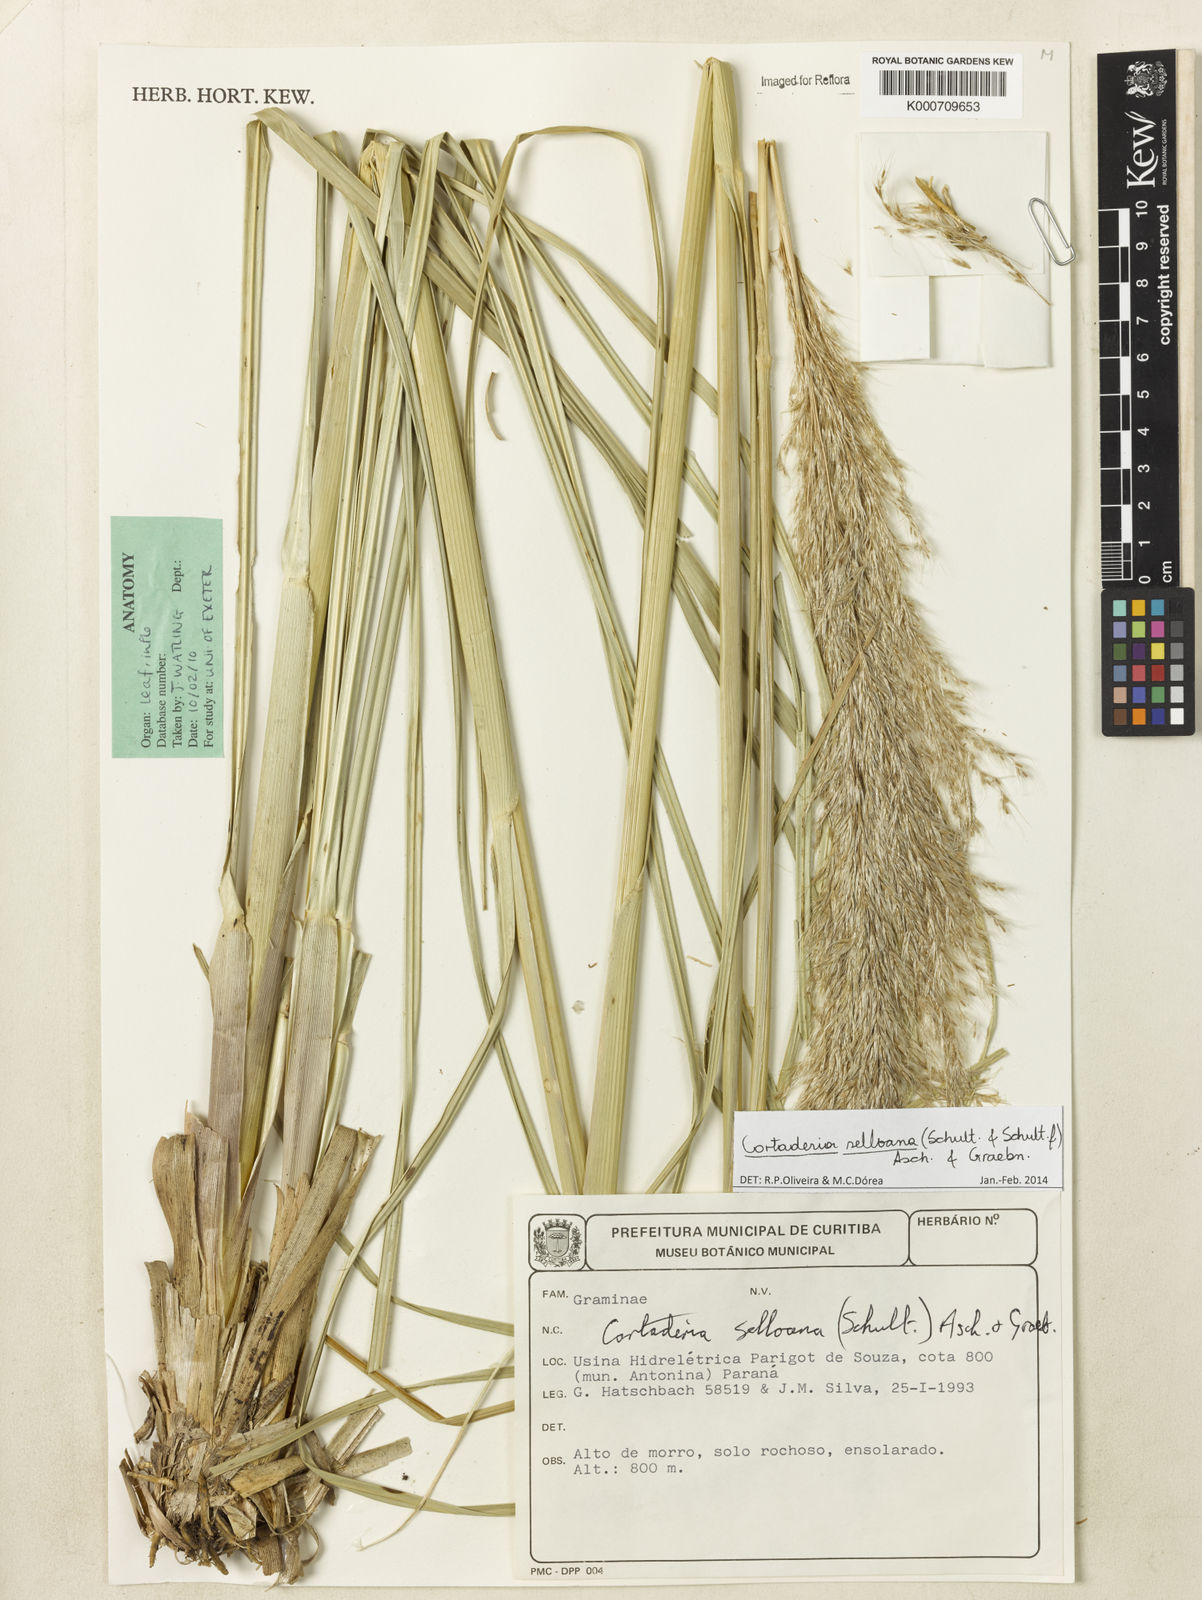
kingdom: Plantae
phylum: Tracheophyta
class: Liliopsida
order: Poales
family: Poaceae
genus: Cortaderia
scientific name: Cortaderia selloana
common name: Uruguayan pampas grass
